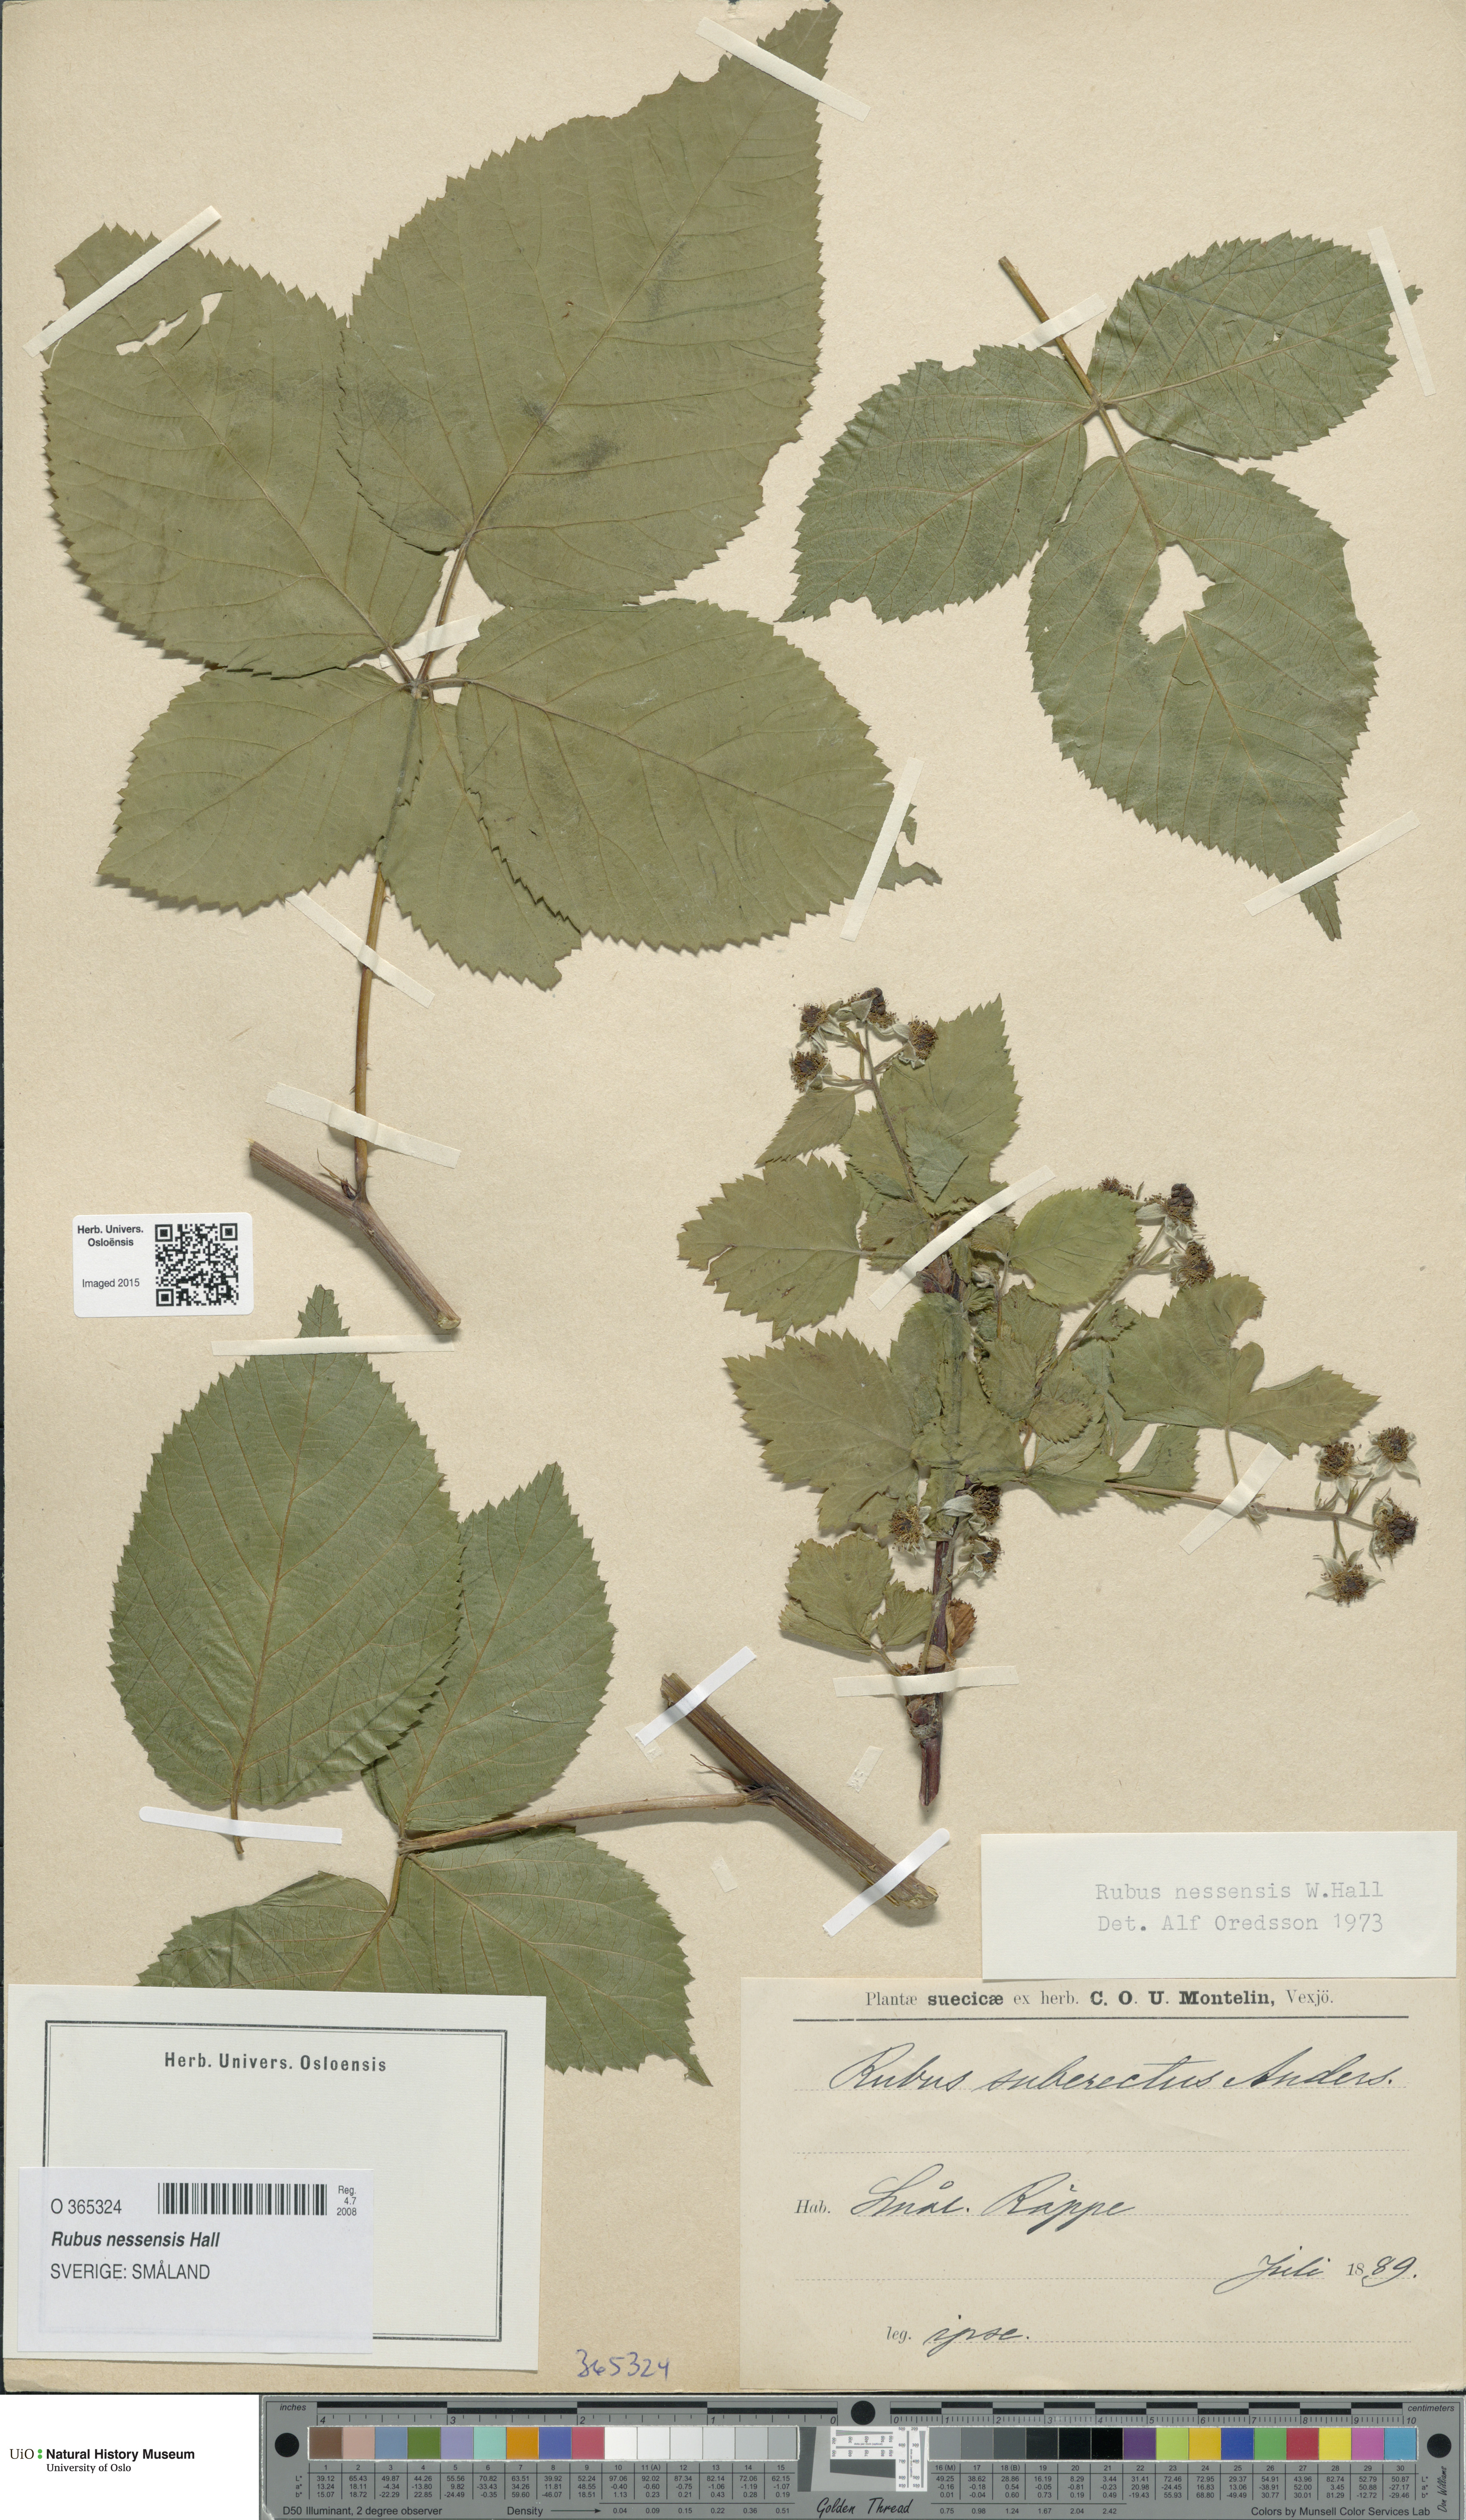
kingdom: Plantae
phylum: Tracheophyta
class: Magnoliopsida
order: Rosales
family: Rosaceae
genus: Rubus
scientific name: Rubus polonicus
